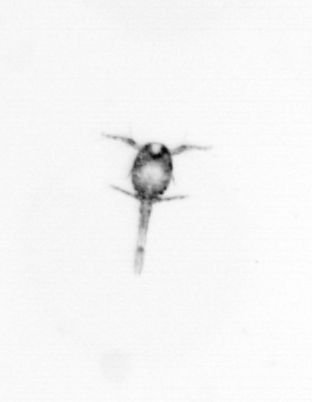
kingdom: Animalia
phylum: Arthropoda
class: Copepoda
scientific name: Copepoda
